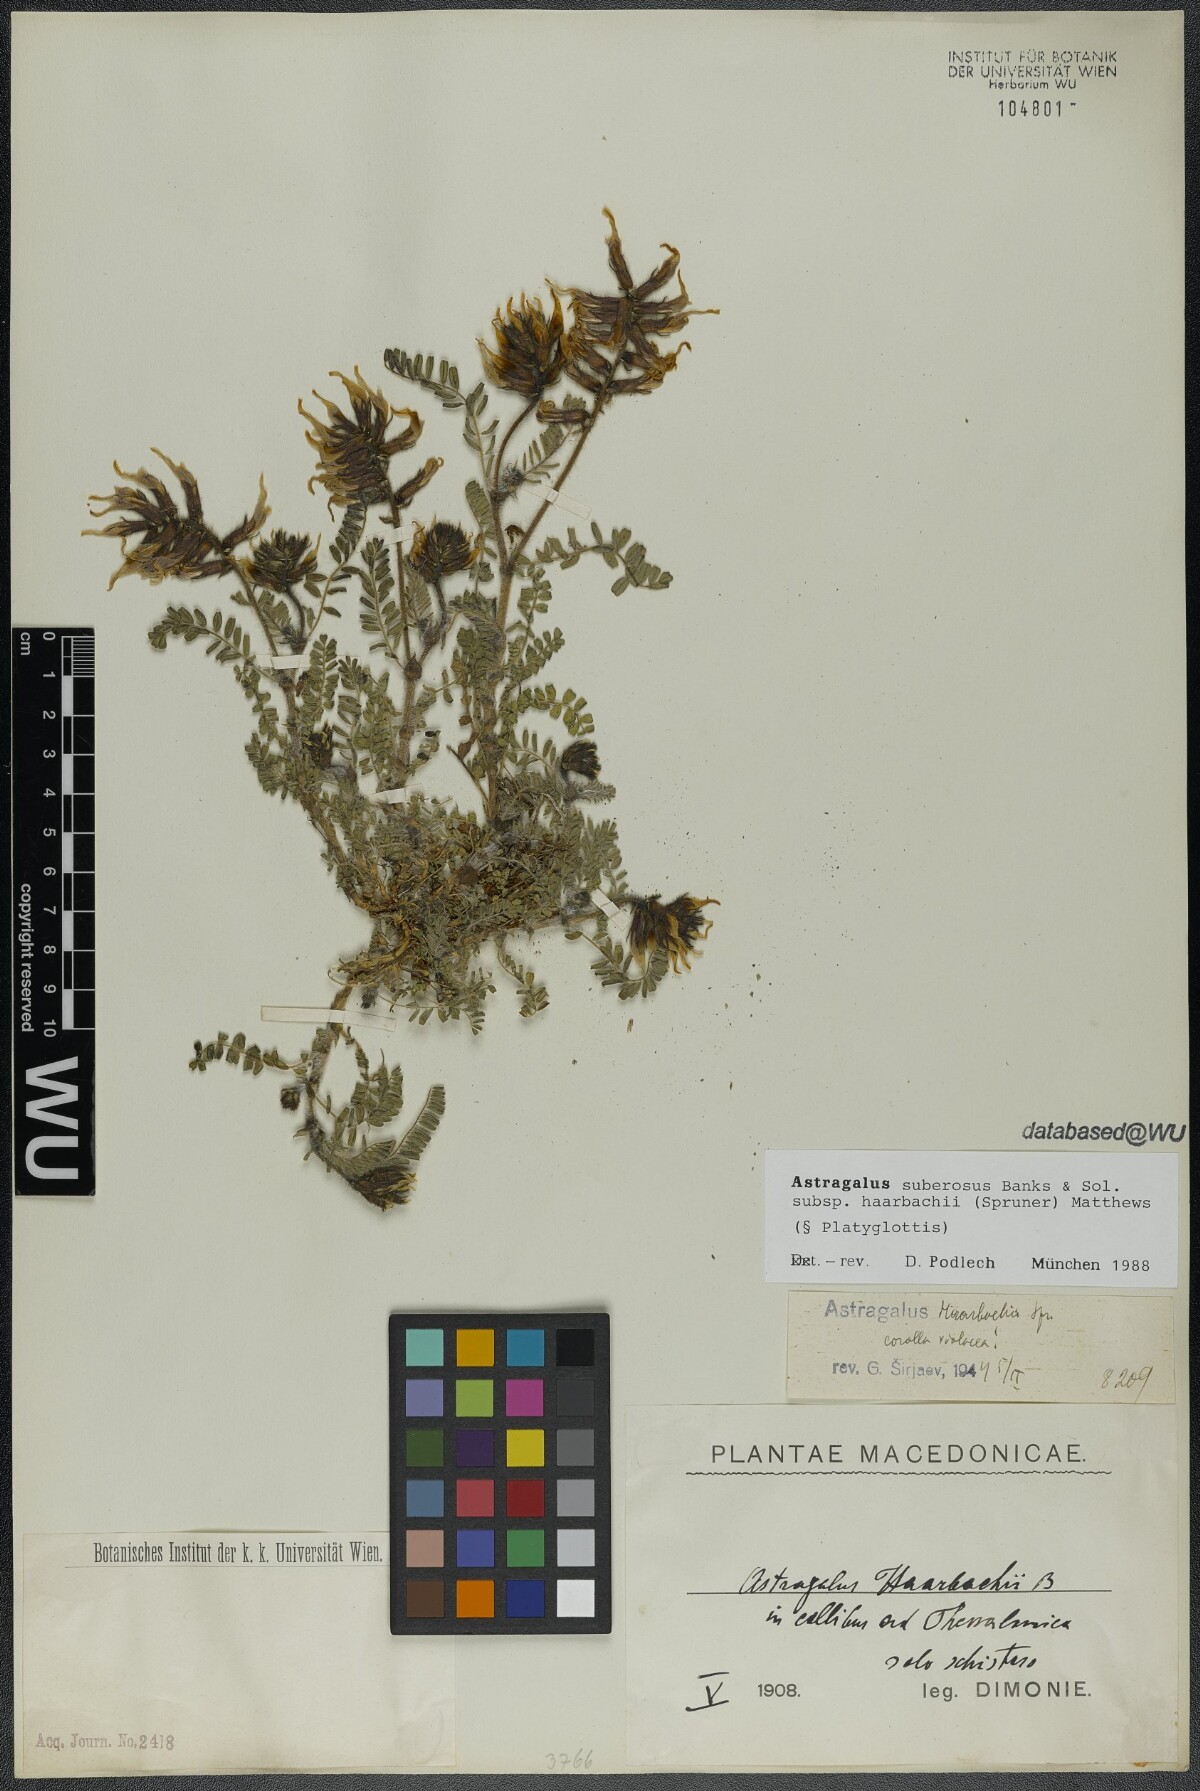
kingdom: Plantae
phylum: Tracheophyta
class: Magnoliopsida
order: Fabales
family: Fabaceae
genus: Astragalus
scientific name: Astragalus suberosus
